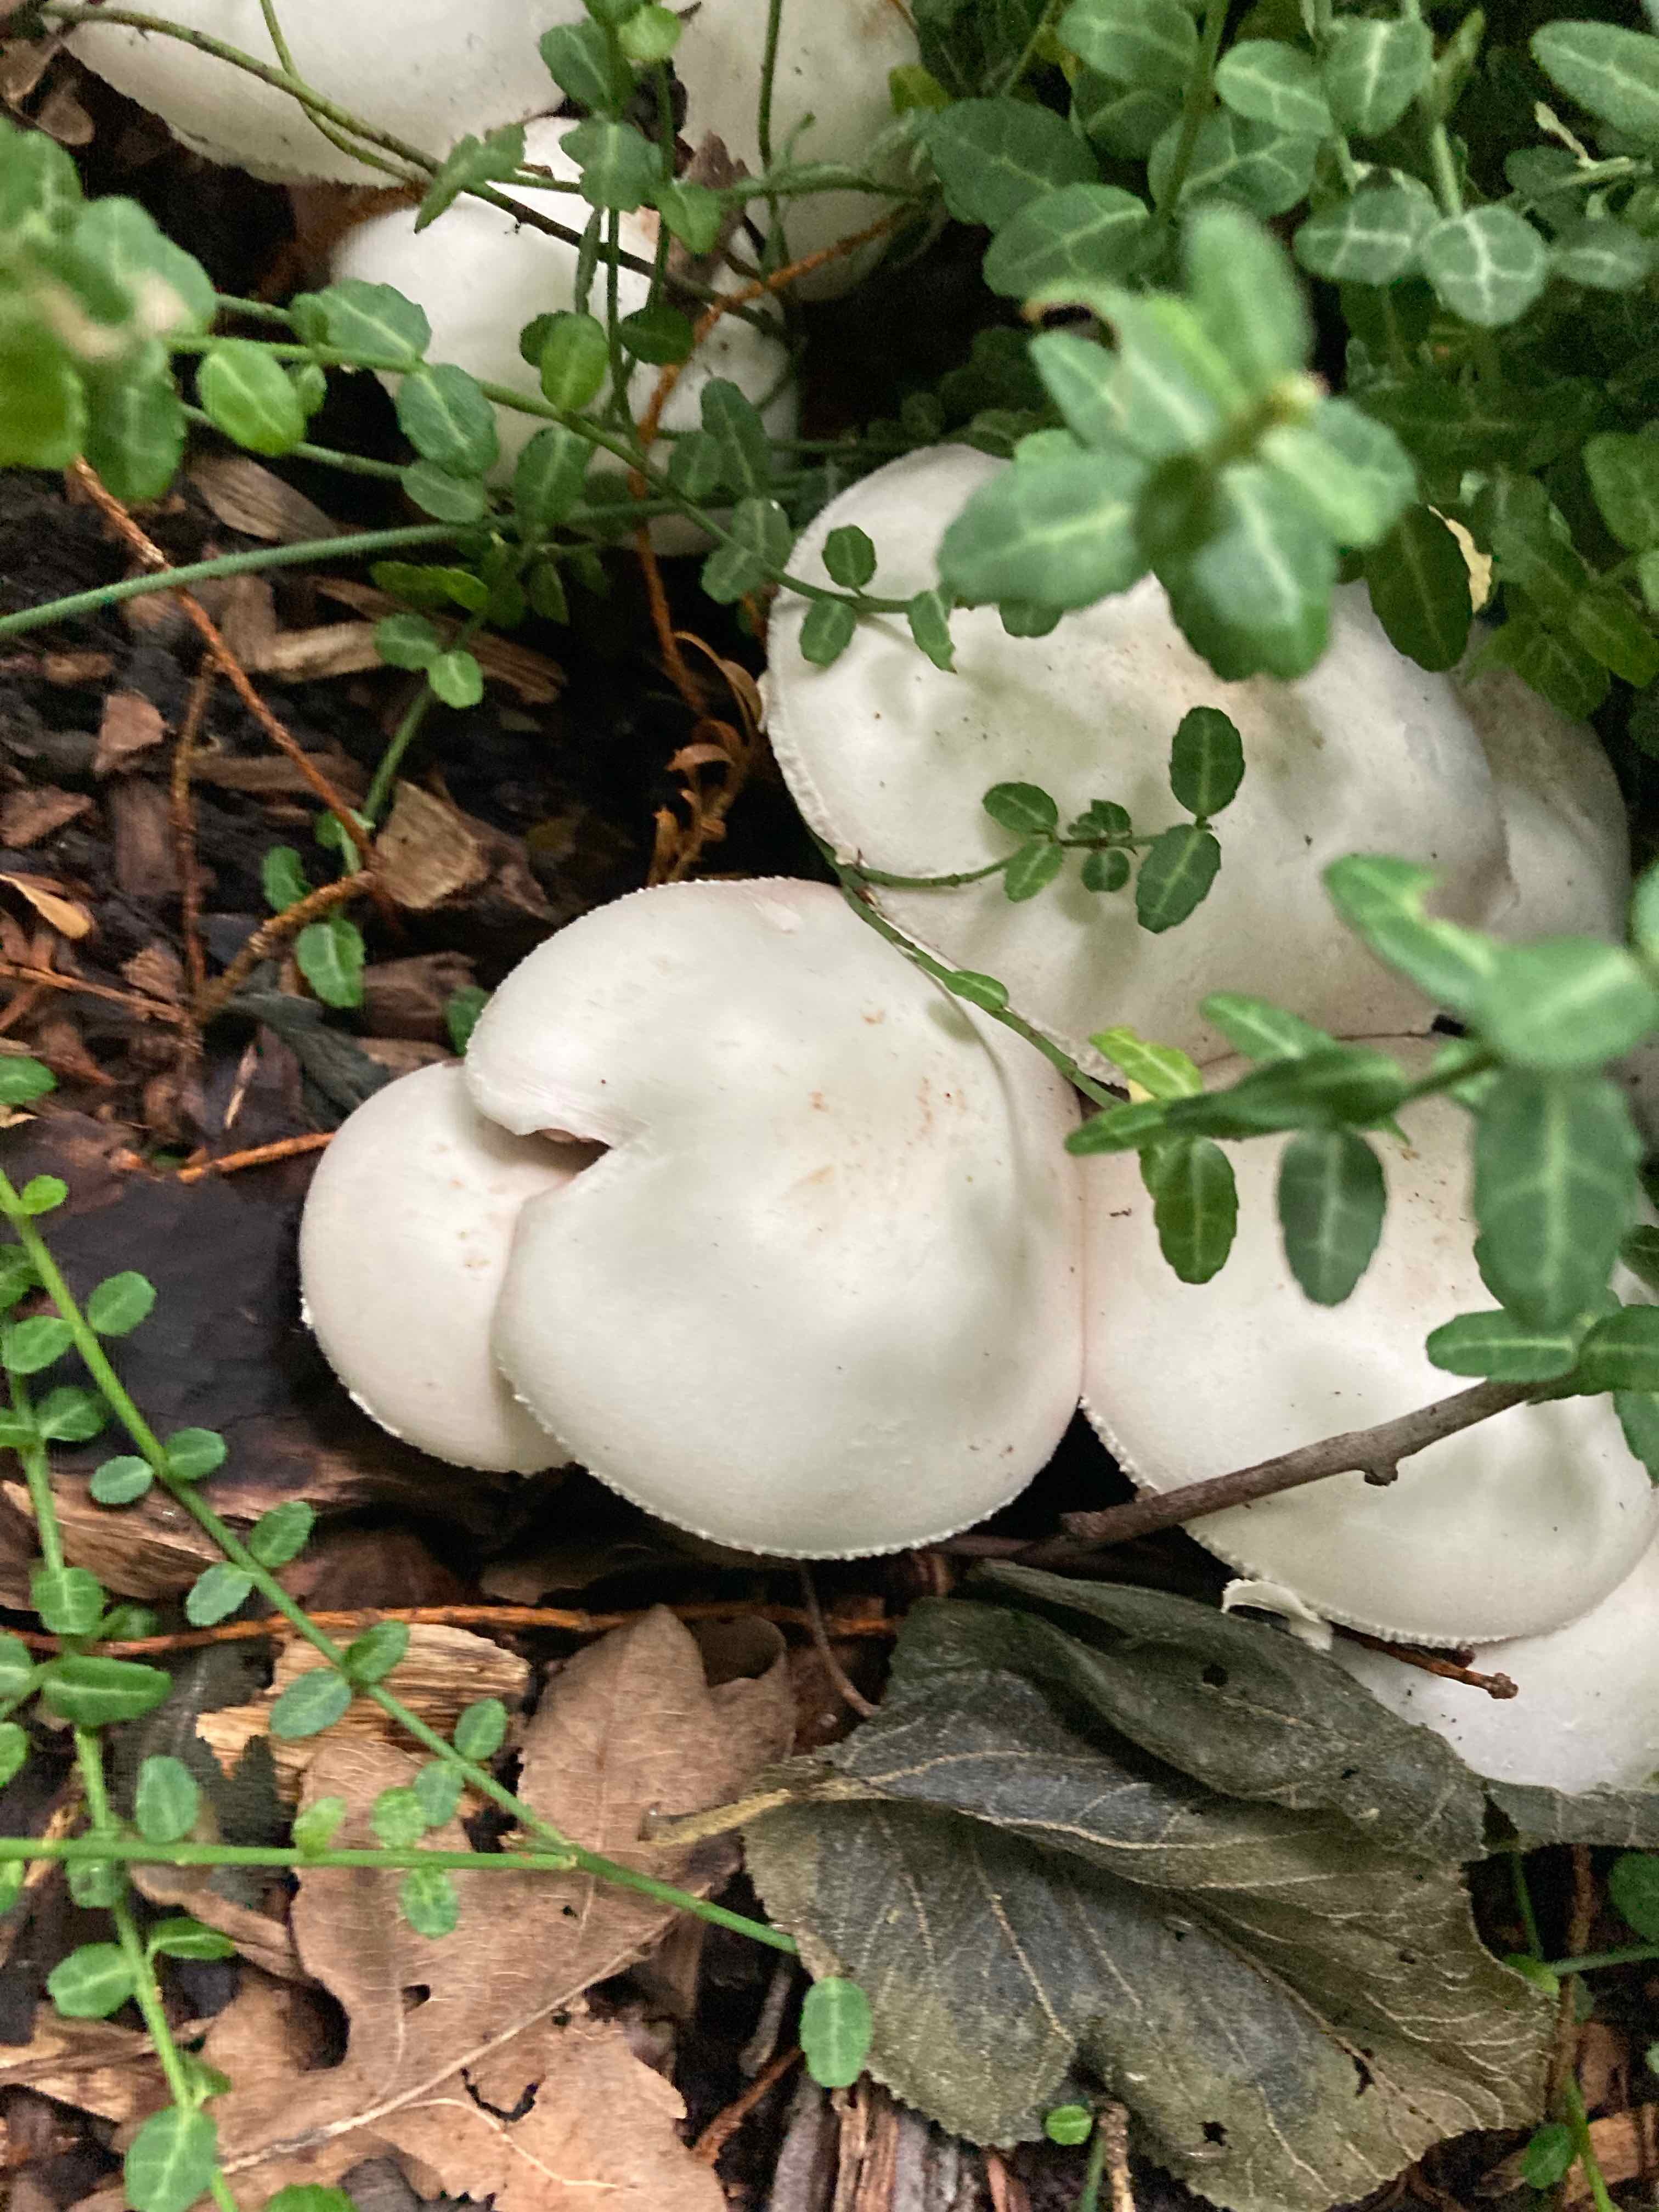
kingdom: Fungi
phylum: Basidiomycota
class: Agaricomycetes
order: Agaricales
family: Agaricaceae
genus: Agaricus
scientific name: Agaricus
